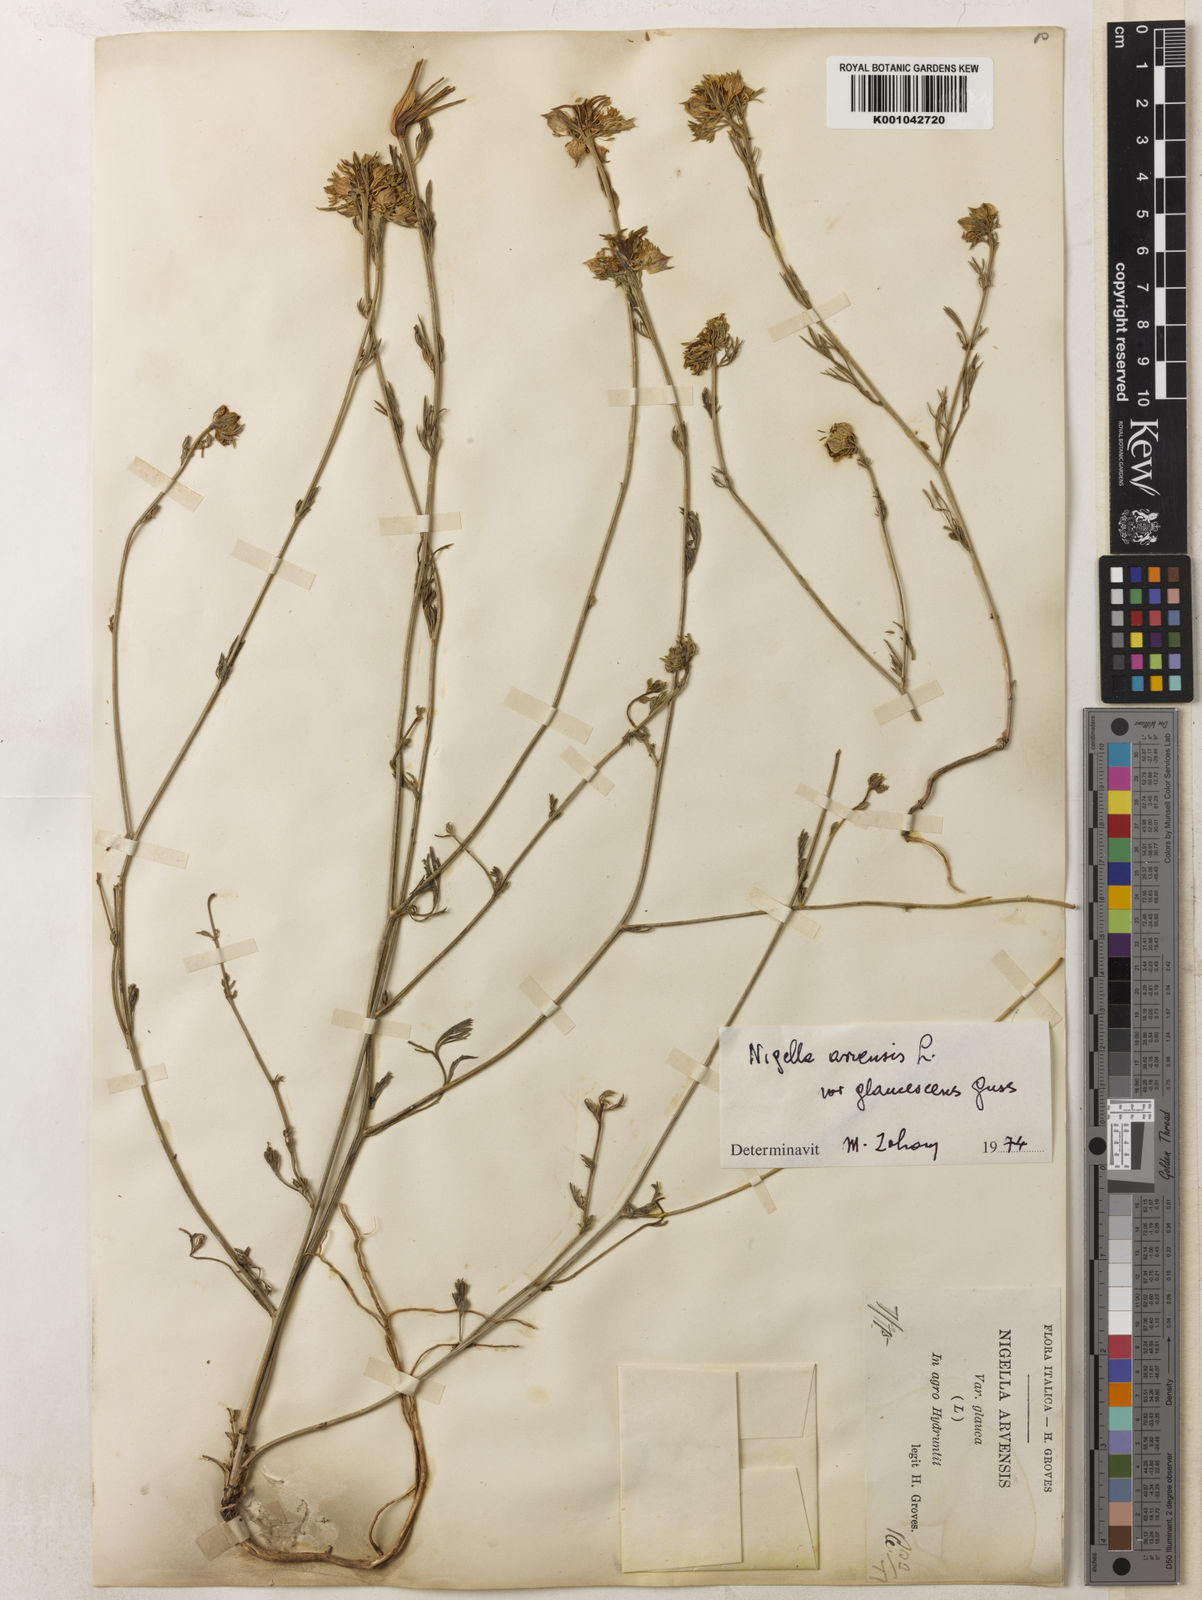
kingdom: Plantae
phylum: Tracheophyta
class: Magnoliopsida
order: Ranunculales
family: Ranunculaceae
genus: Nigella
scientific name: Nigella arvensis
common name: Wild fennel-flower
